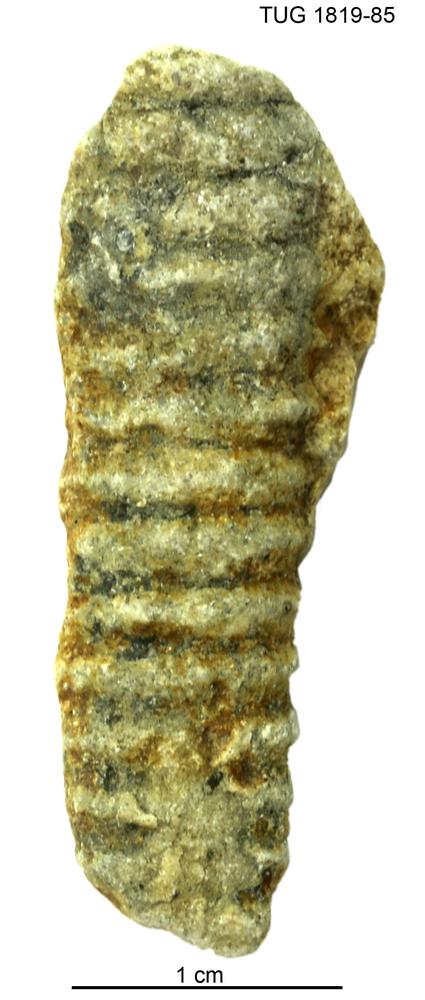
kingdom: Animalia
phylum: Mollusca
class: Cephalopoda
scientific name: Cephalopoda
